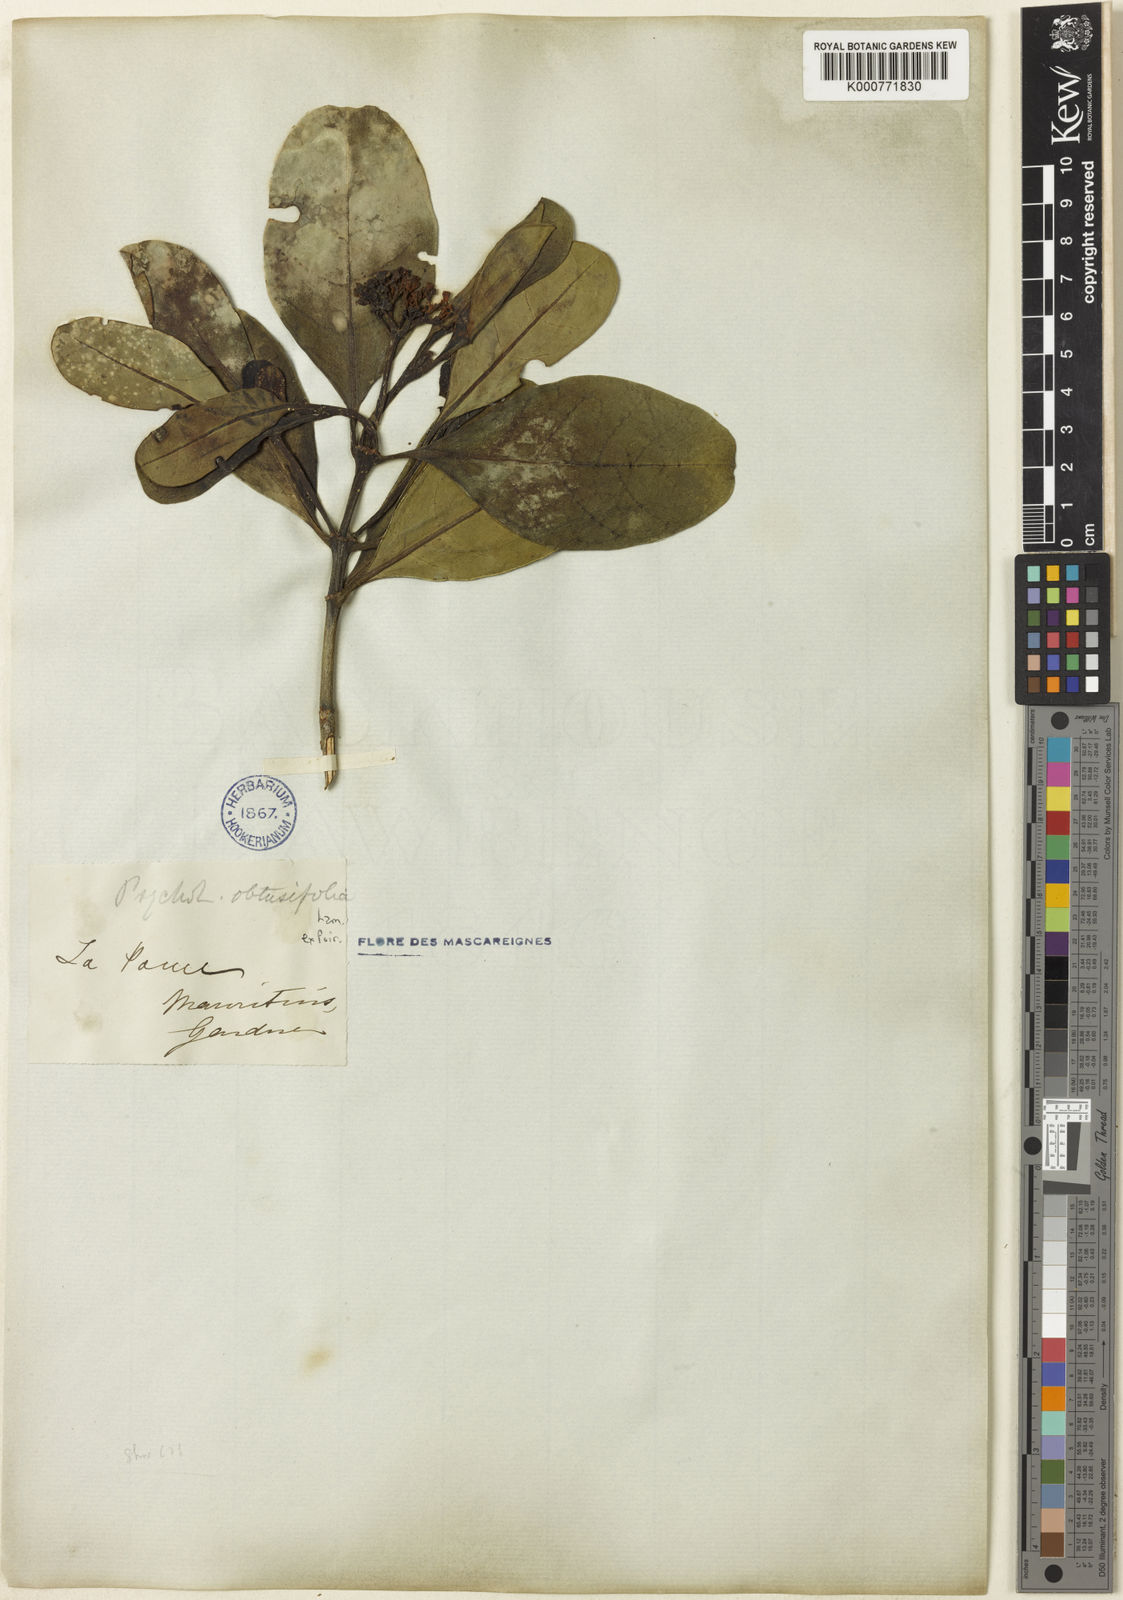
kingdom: Plantae
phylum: Tracheophyta
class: Magnoliopsida
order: Gentianales
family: Rubiaceae
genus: Psychotria
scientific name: Psychotria obtusifolia
